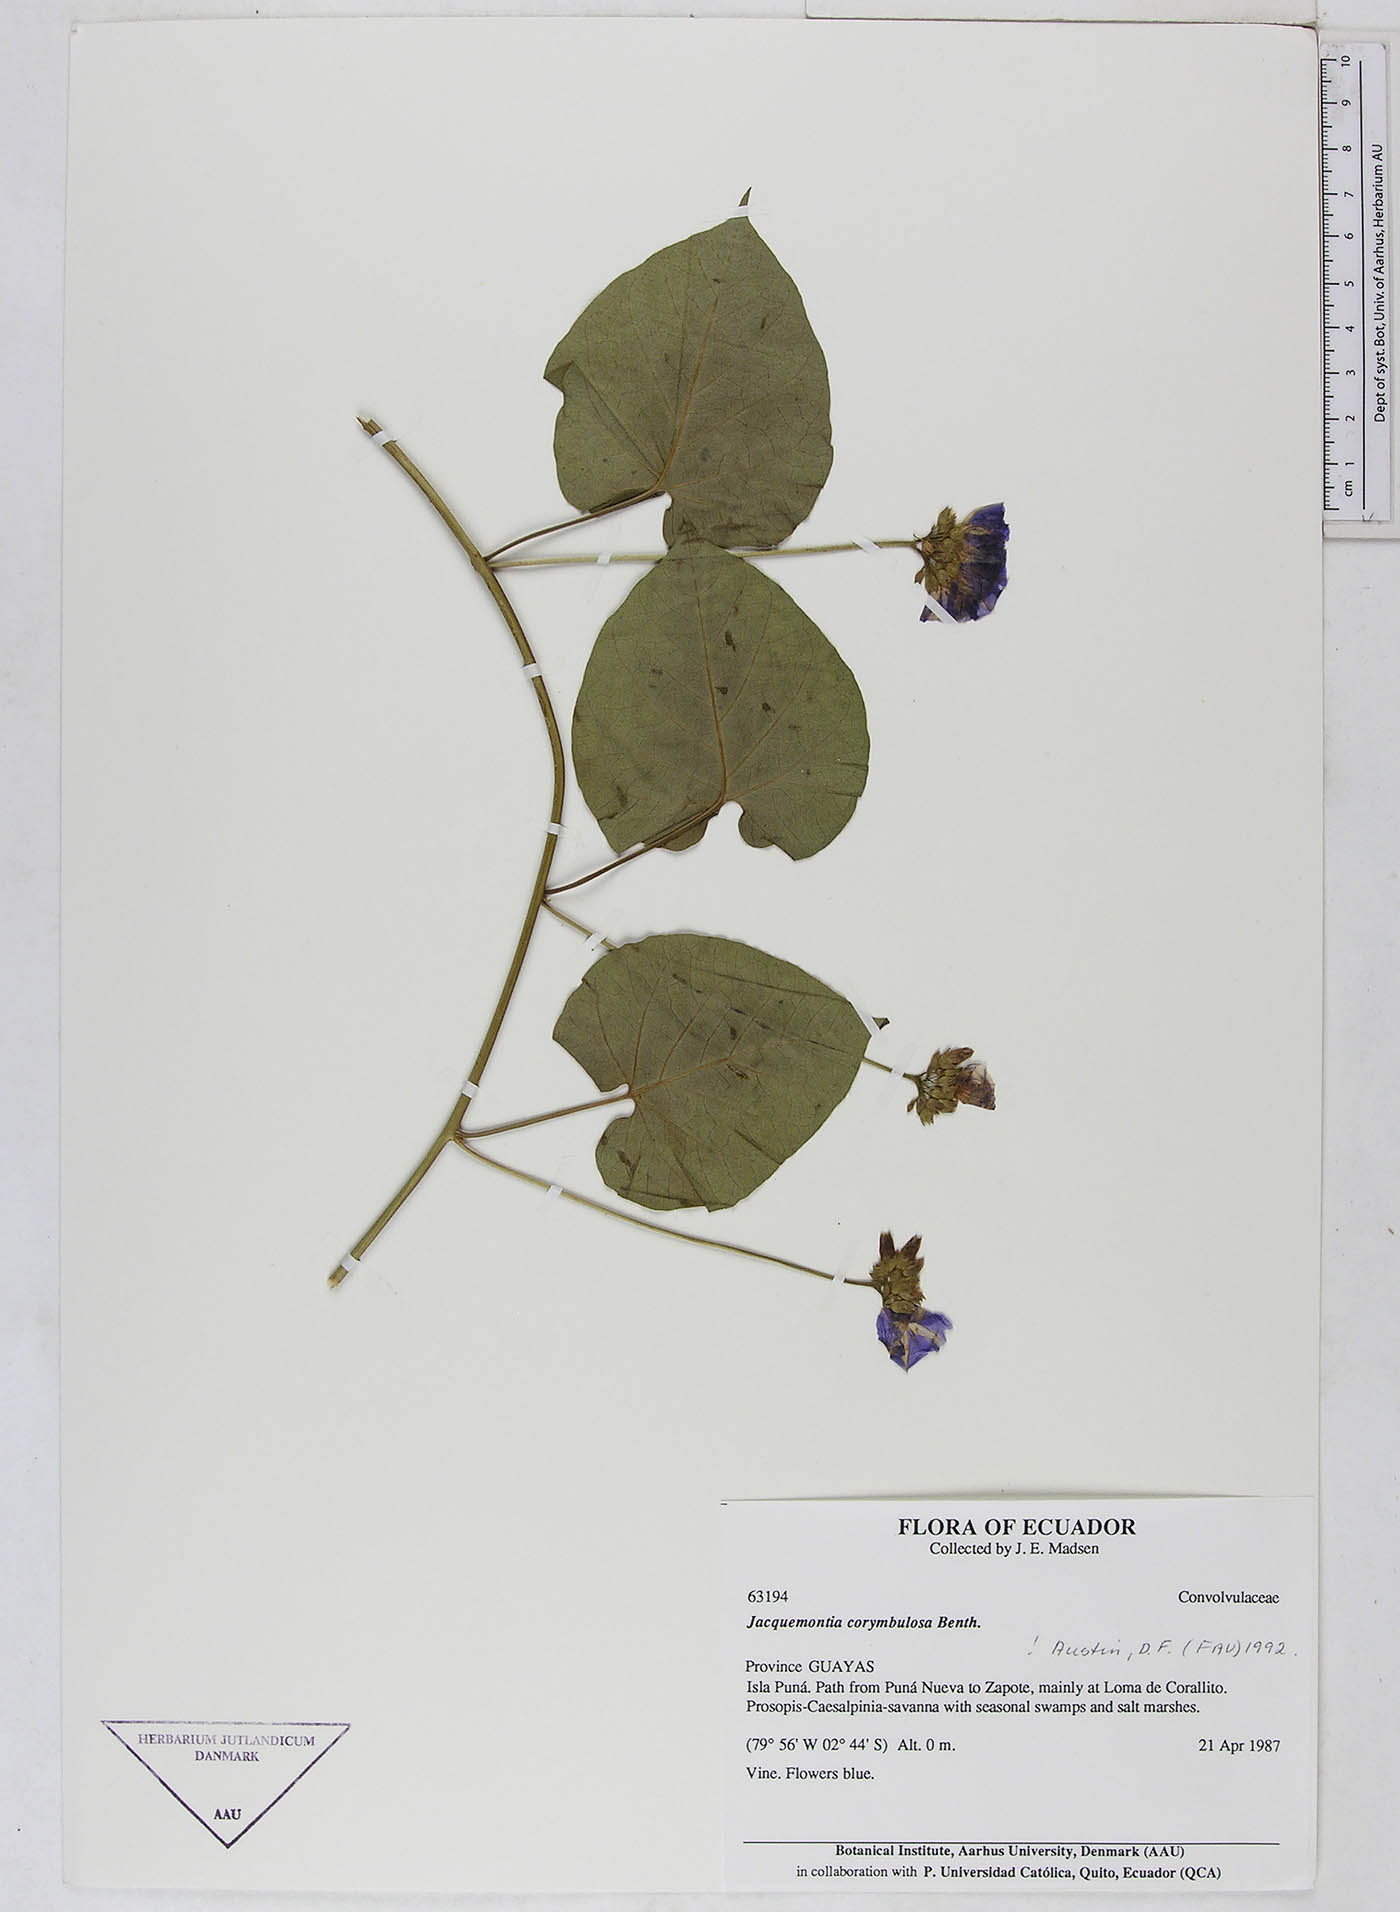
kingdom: Plantae
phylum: Tracheophyta
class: Magnoliopsida
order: Solanales
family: Convolvulaceae
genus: Jacquemontia
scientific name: Jacquemontia corymbulosa
